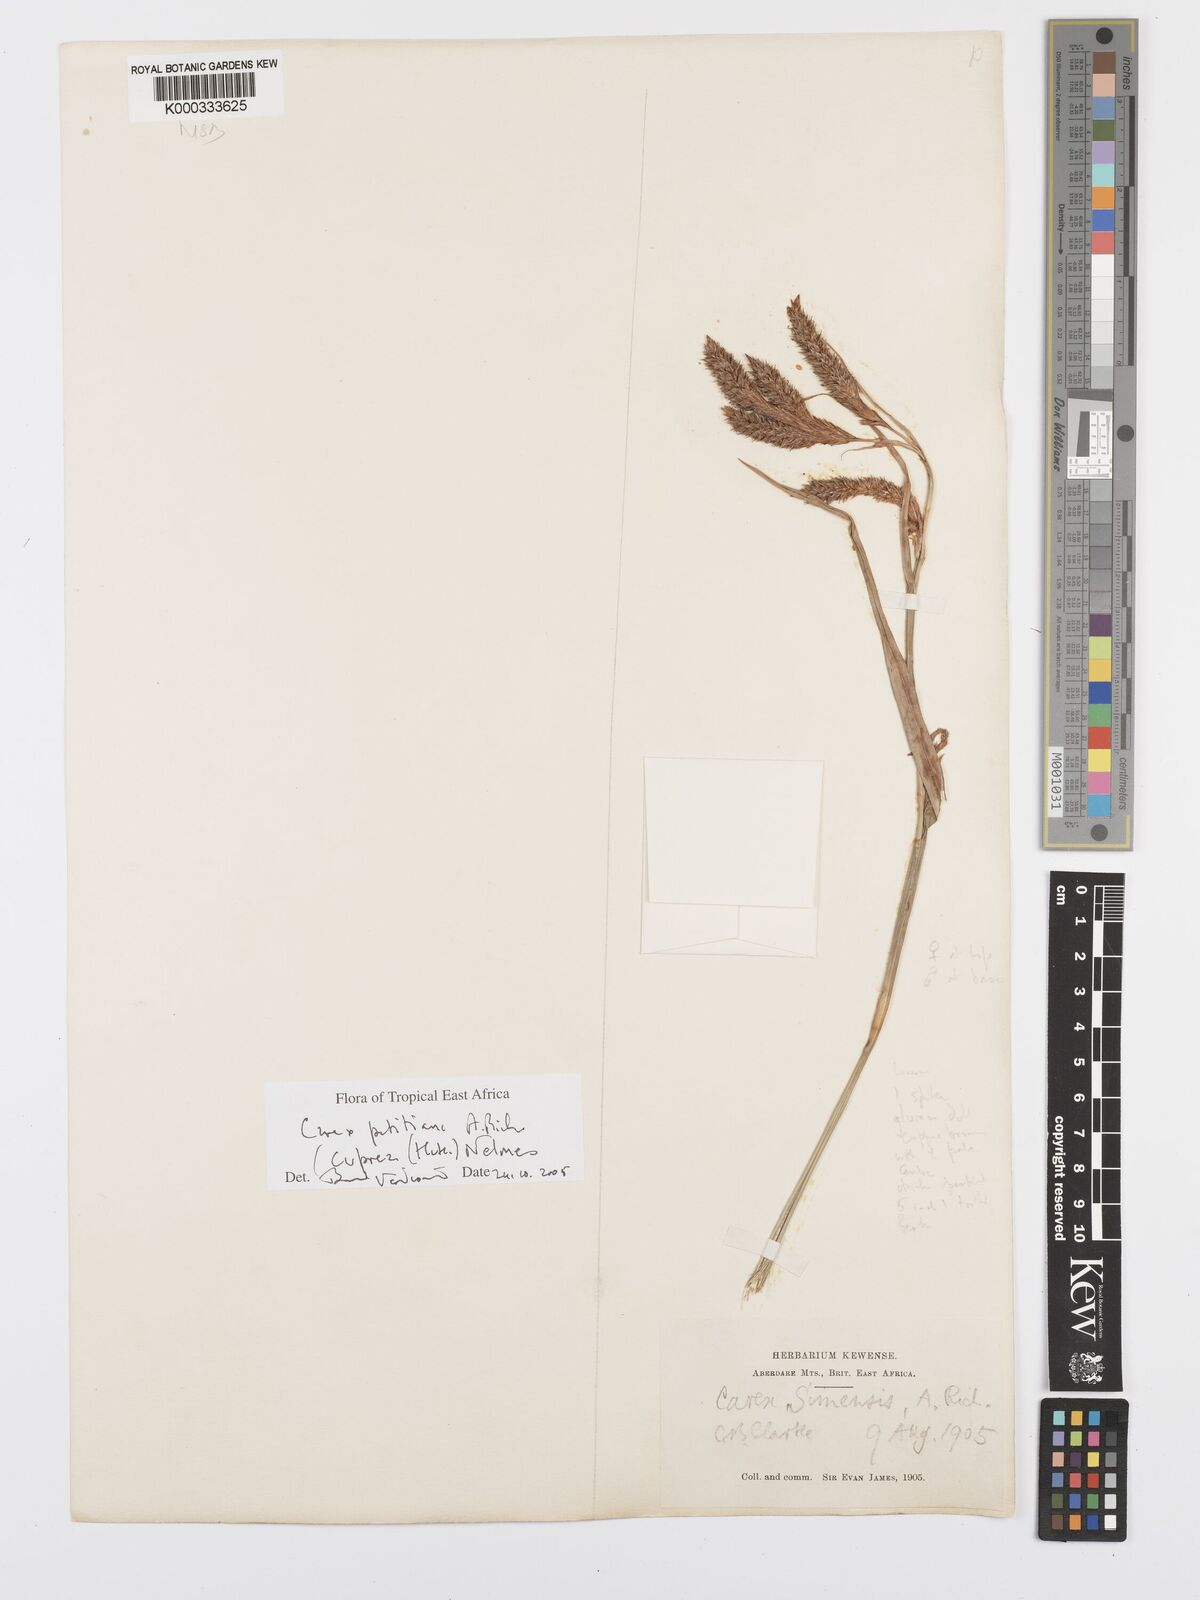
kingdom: Plantae
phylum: Tracheophyta
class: Liliopsida
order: Poales
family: Cyperaceae
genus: Carex
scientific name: Carex petitiana
